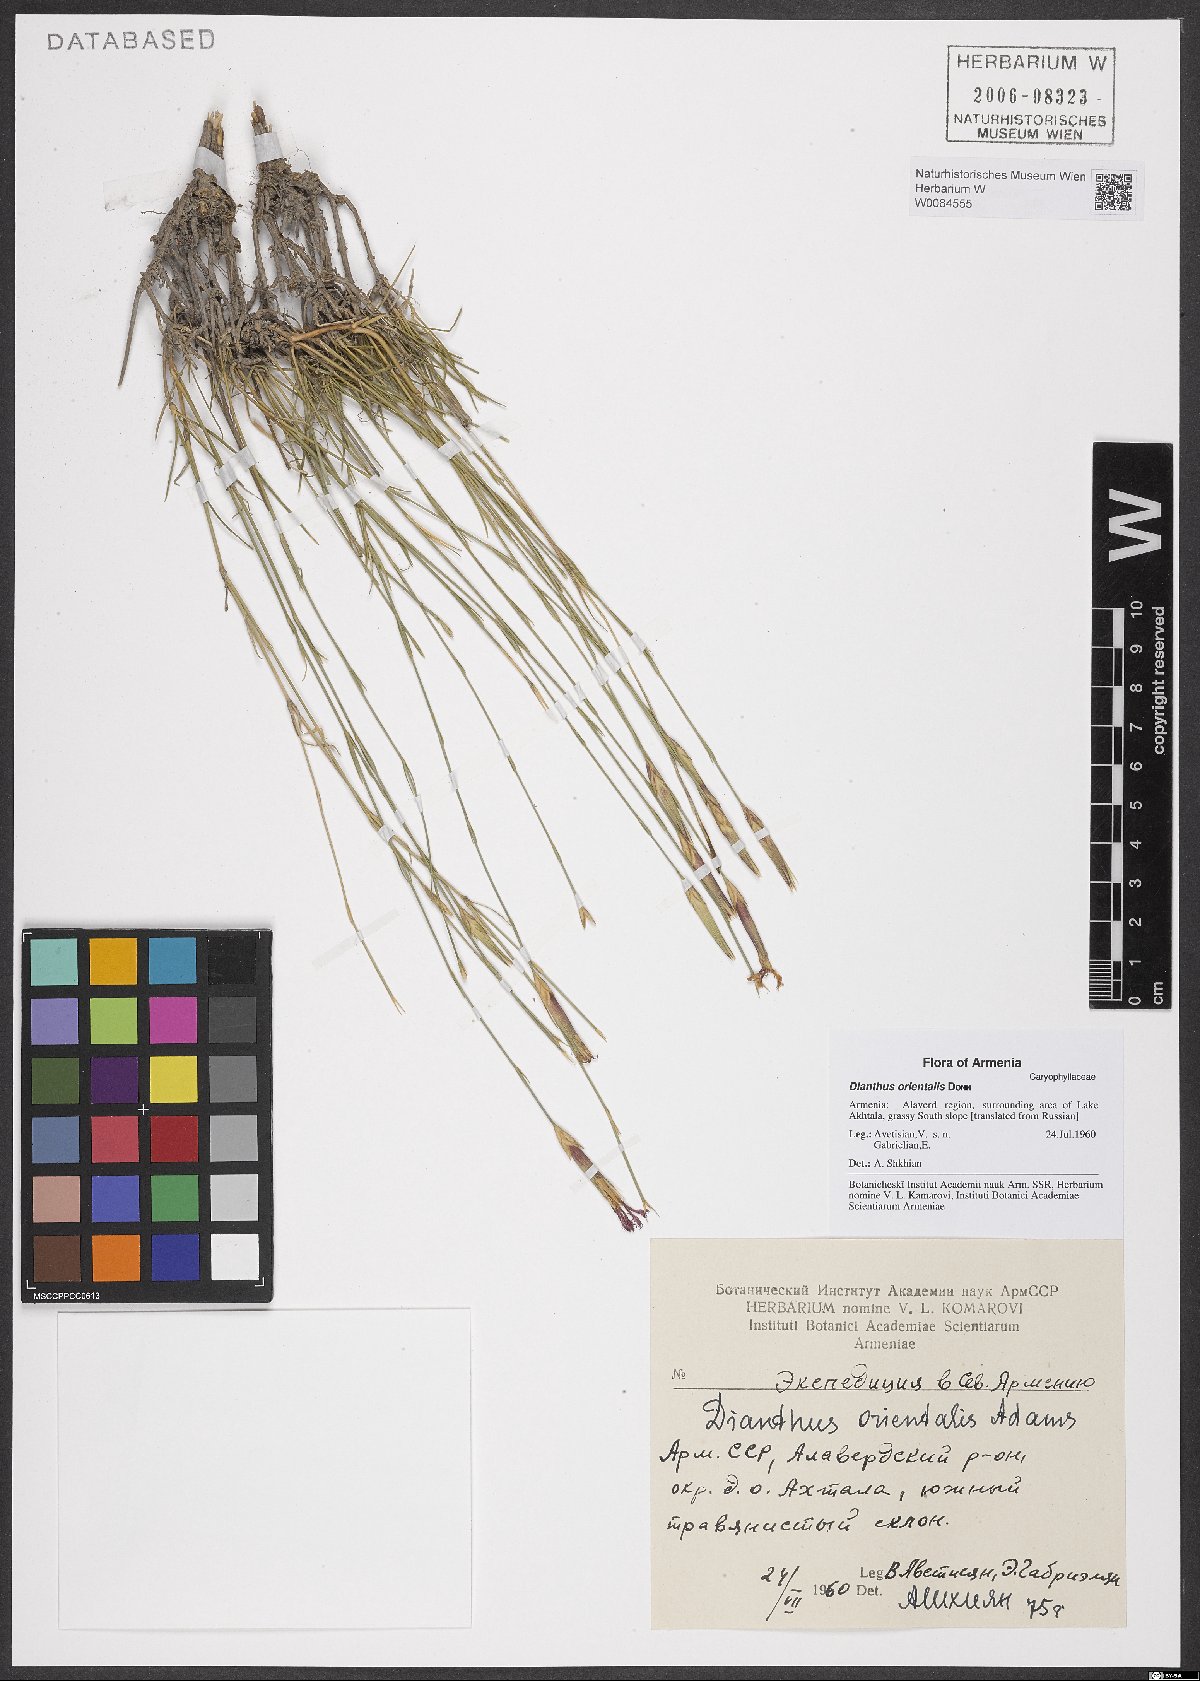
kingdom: Plantae
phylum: Tracheophyta
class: Magnoliopsida
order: Caryophyllales
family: Caryophyllaceae
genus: Dianthus
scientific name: Dianthus orientalis
